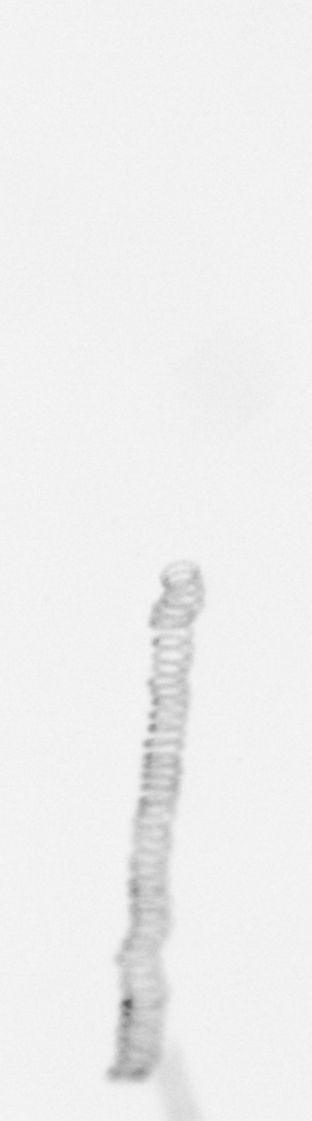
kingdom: Chromista
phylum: Ochrophyta
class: Bacillariophyceae
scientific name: Bacillariophyceae
